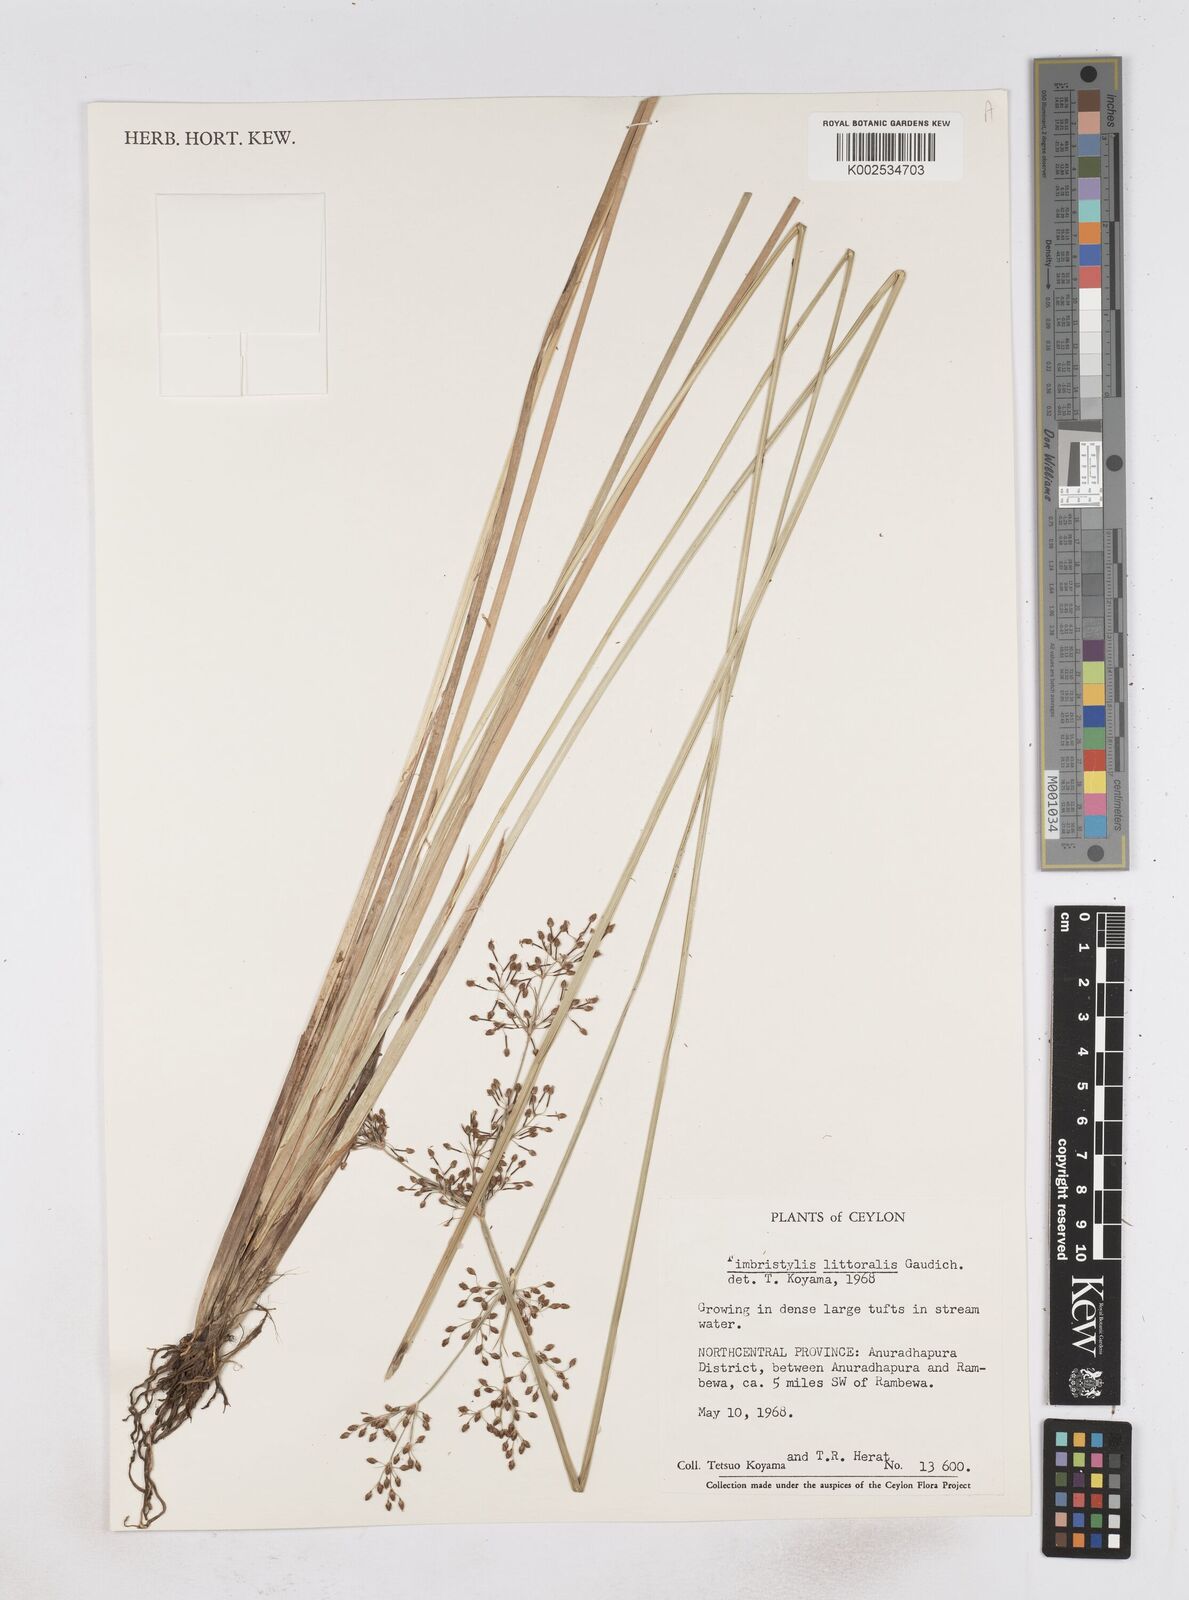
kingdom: Plantae
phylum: Tracheophyta
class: Liliopsida
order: Poales
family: Cyperaceae
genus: Fimbristylis
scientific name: Fimbristylis littoralis
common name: Fimbry
